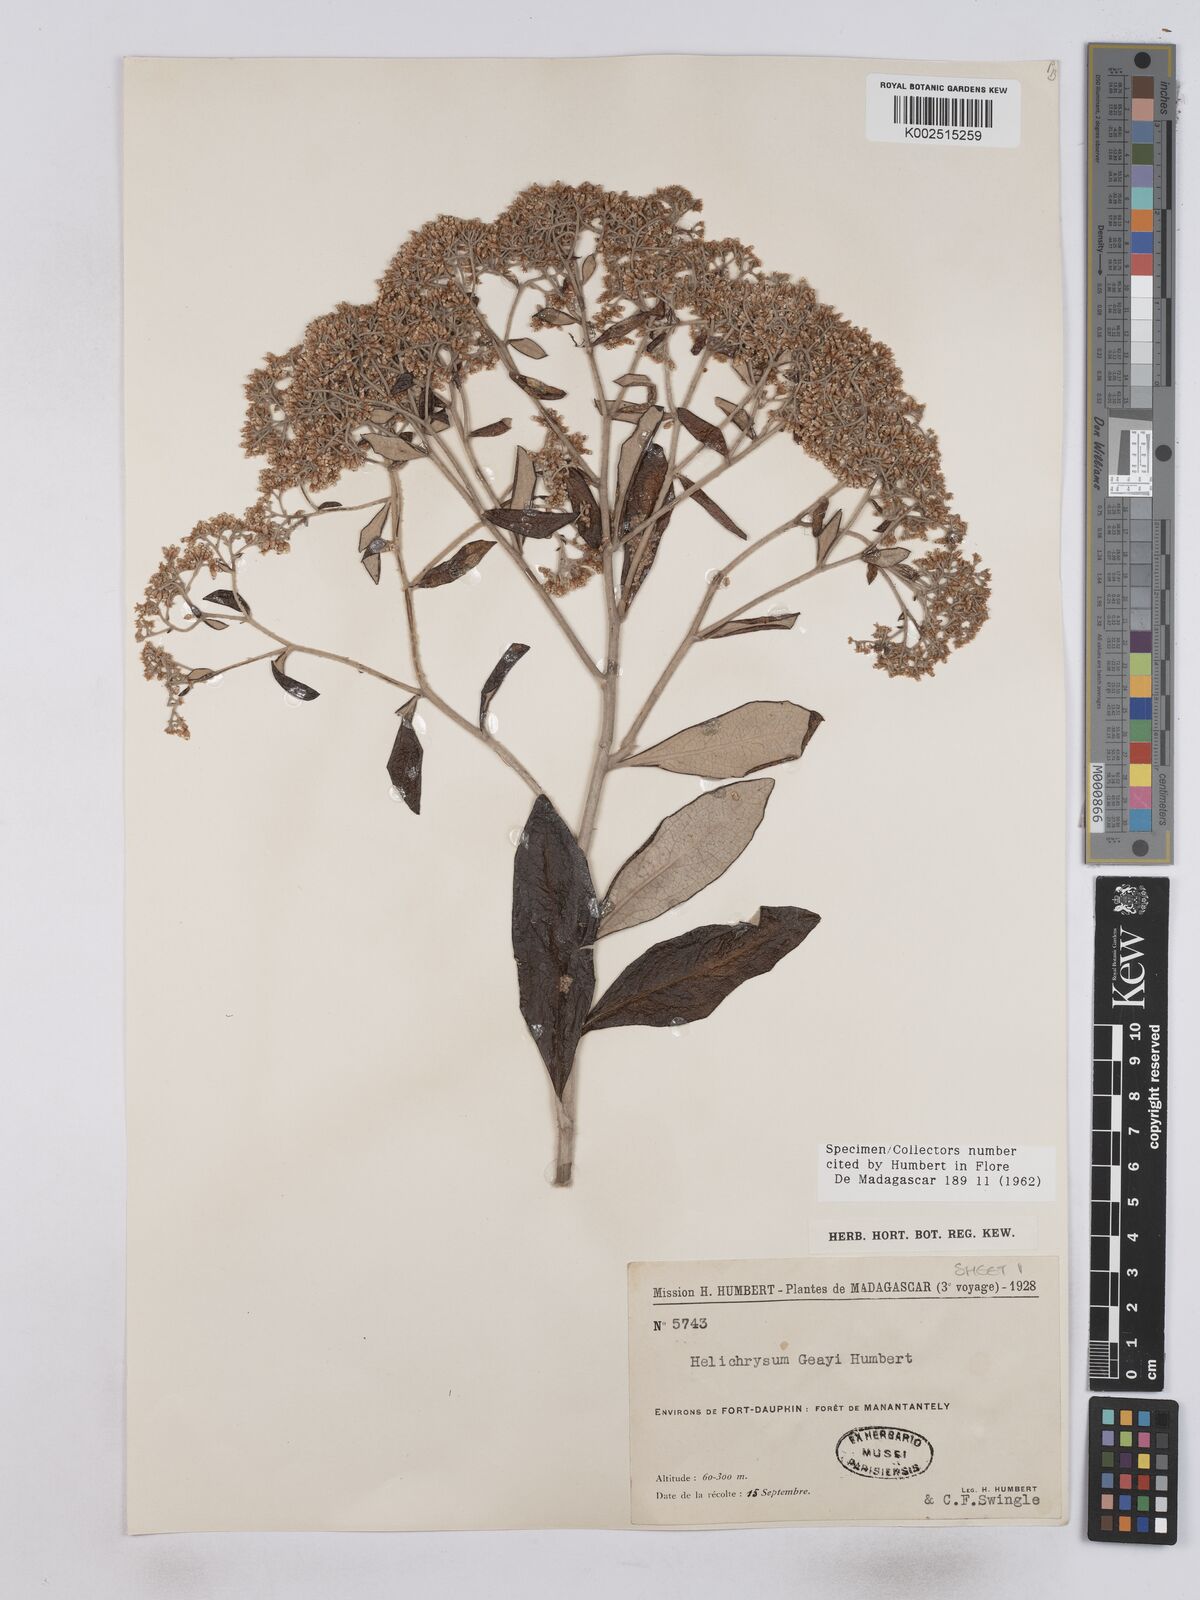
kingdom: Plantae
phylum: Tracheophyta
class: Magnoliopsida
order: Asterales
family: Asteraceae
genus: Helichrysum
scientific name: Helichrysum geayi
